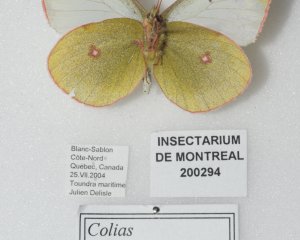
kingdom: Animalia
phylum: Arthropoda
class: Insecta
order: Lepidoptera
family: Pieridae
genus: Colias
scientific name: Colias pelidne
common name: Pelidne Sulphur
